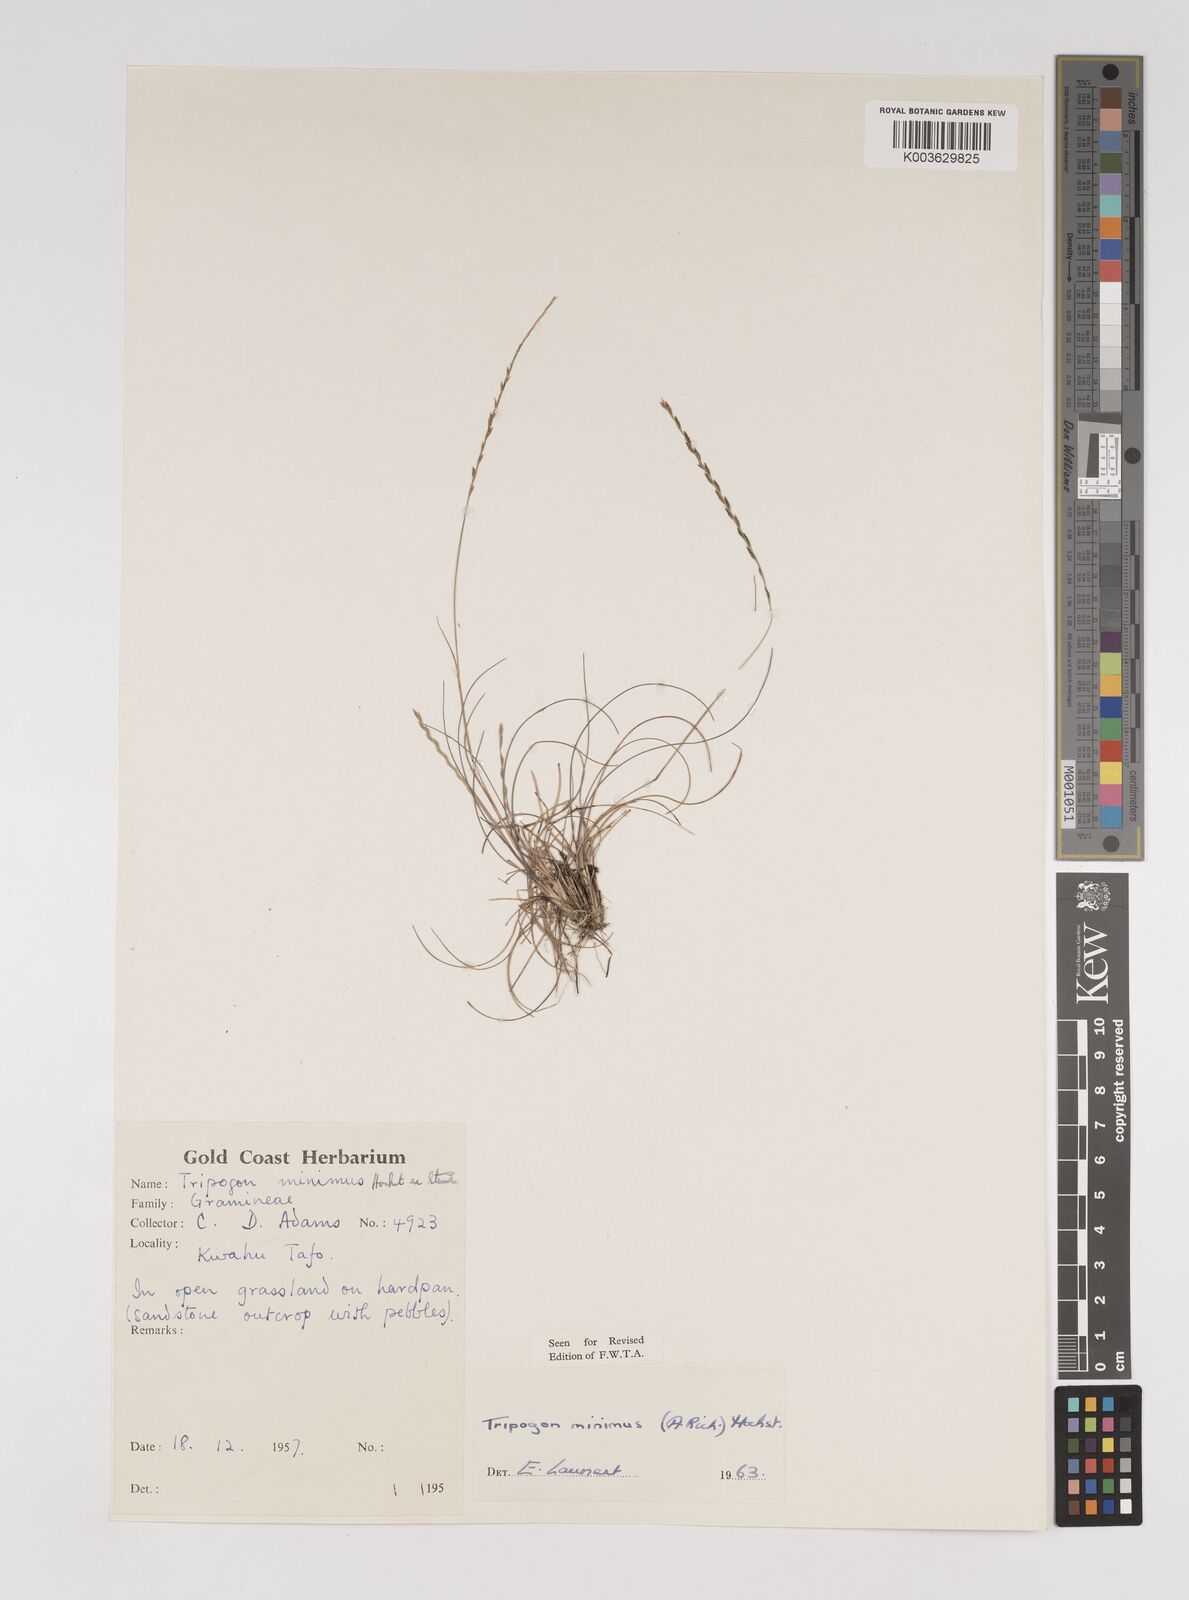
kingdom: Plantae
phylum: Tracheophyta
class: Liliopsida
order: Poales
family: Poaceae
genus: Tripogonella
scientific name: Tripogonella minima
